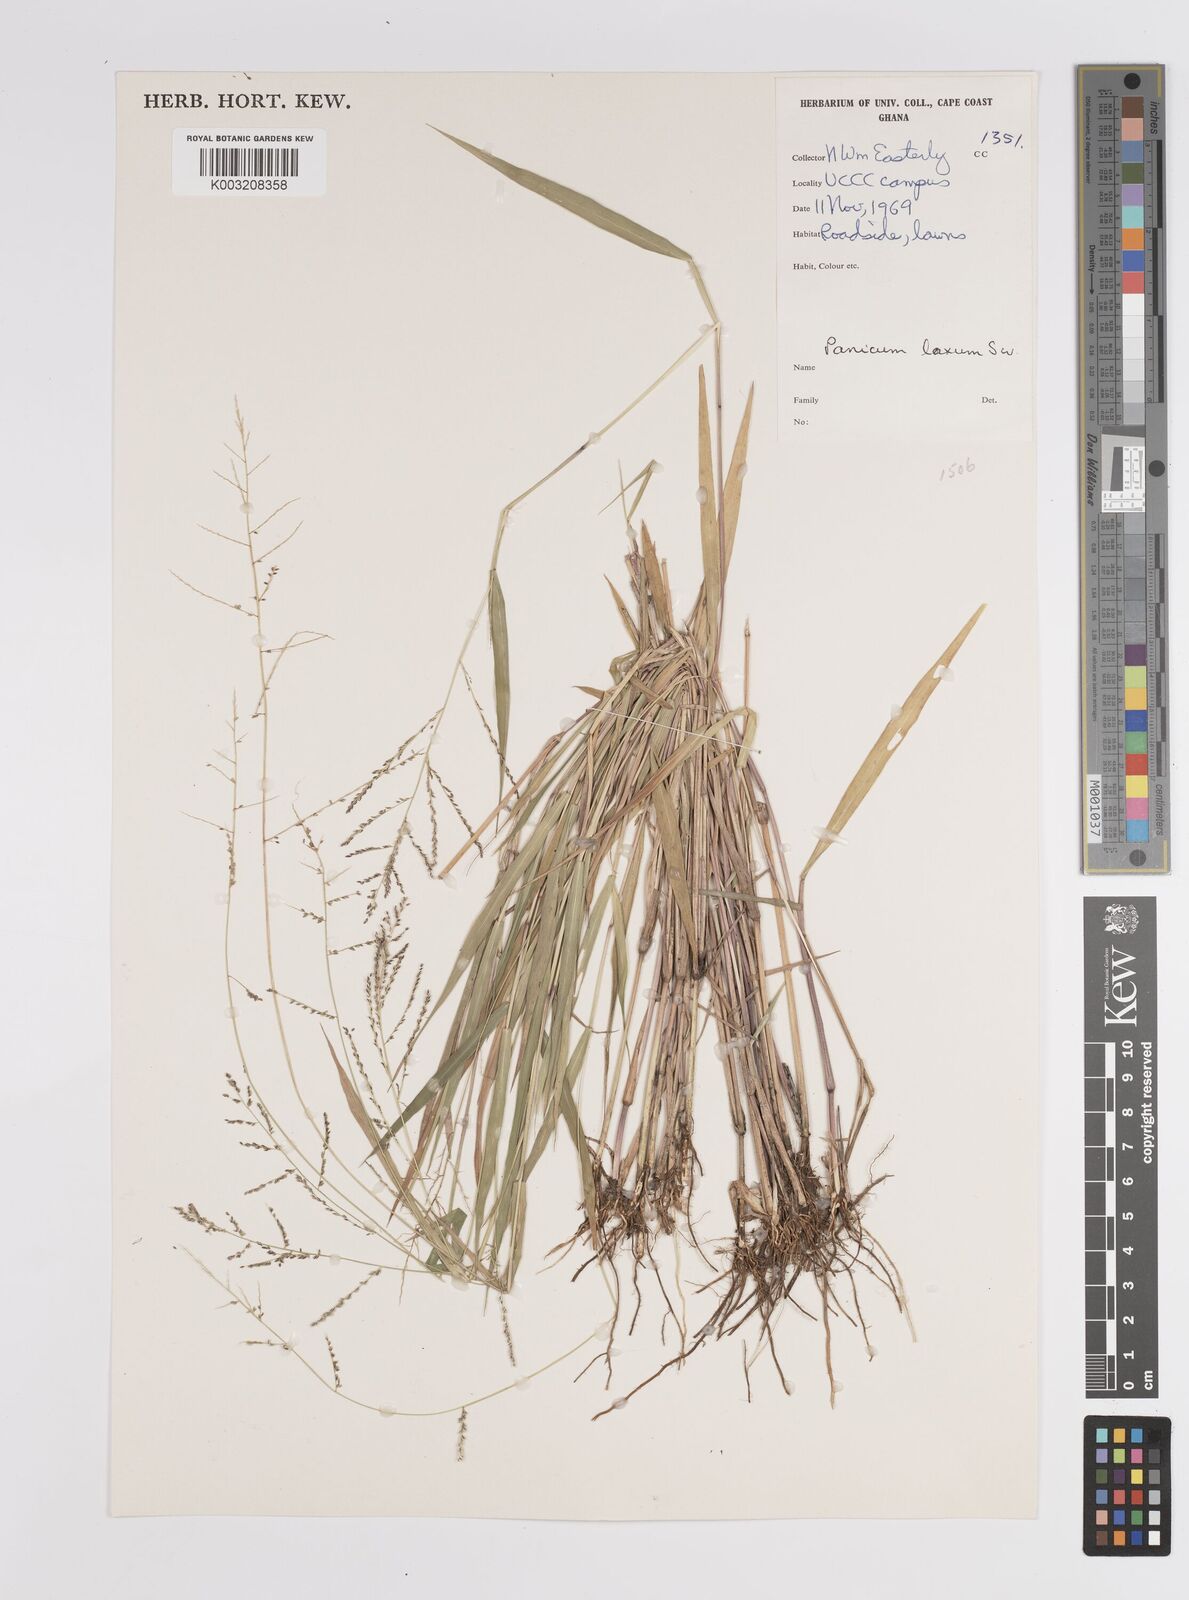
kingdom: Plantae
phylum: Tracheophyta
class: Liliopsida
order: Poales
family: Poaceae
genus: Steinchisma
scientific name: Steinchisma laxum
